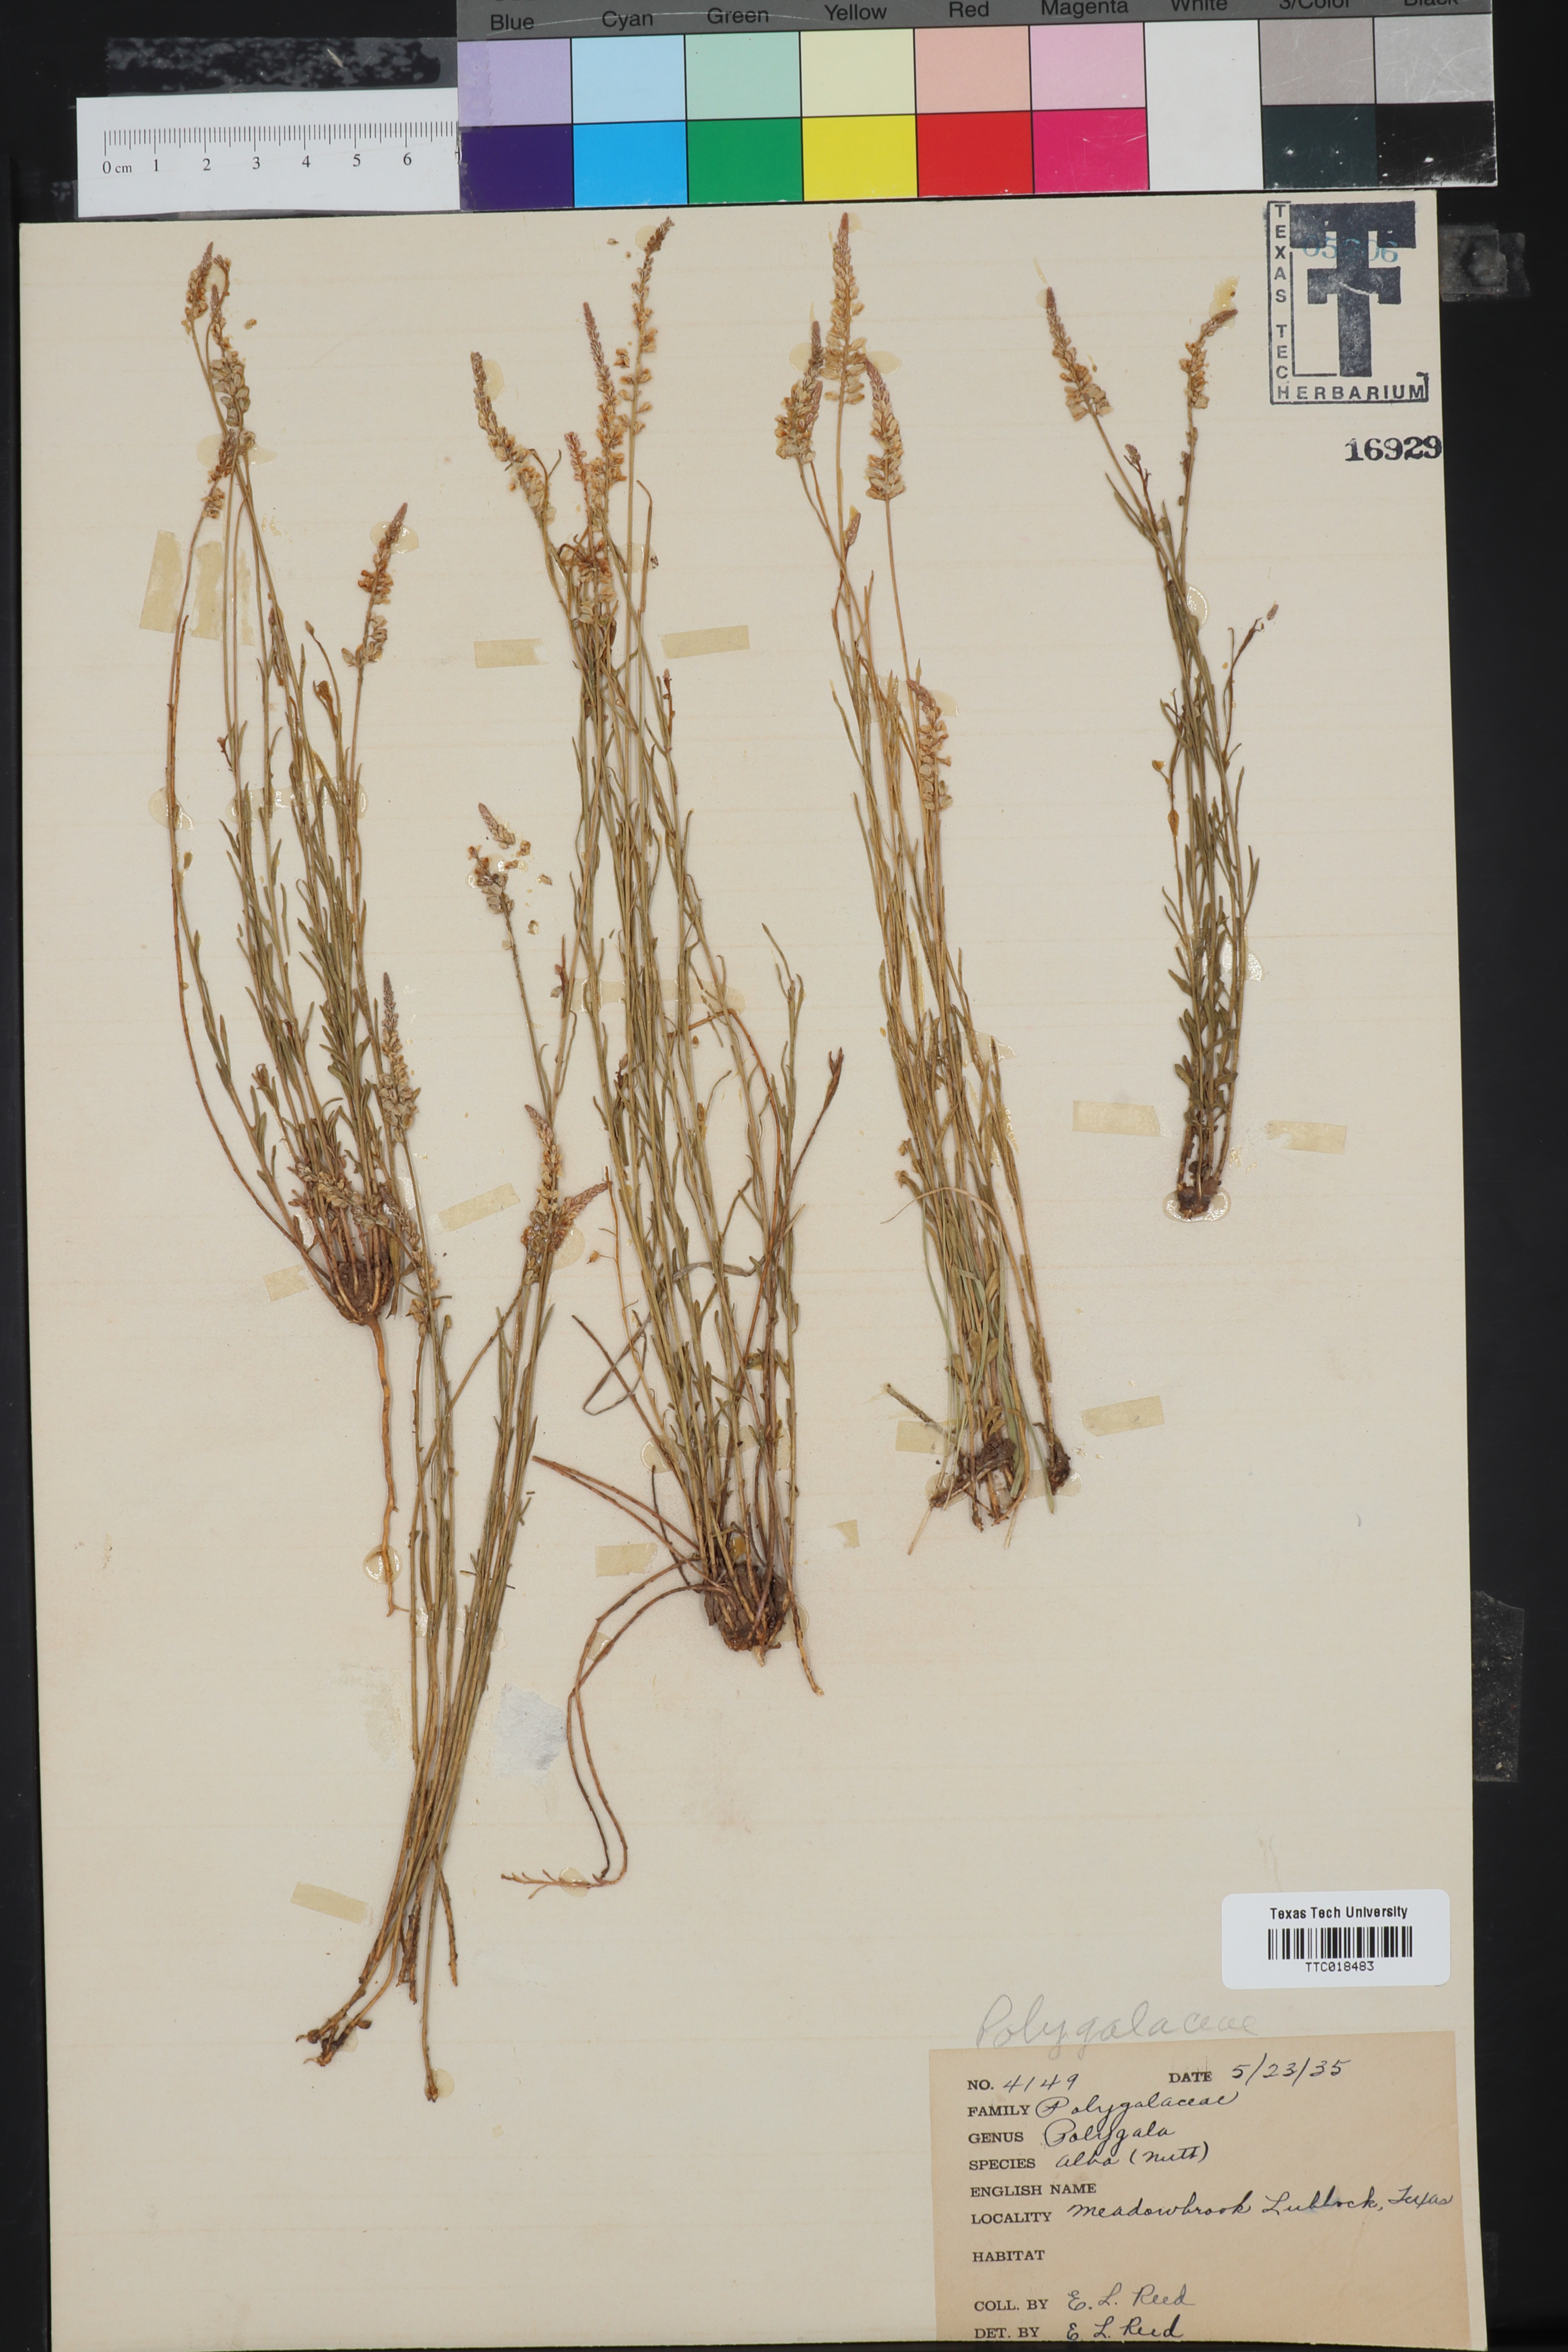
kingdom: Plantae
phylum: Tracheophyta
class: Magnoliopsida
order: Fabales
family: Polygalaceae
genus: Polygala
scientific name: Polygala alba
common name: White milkwort
